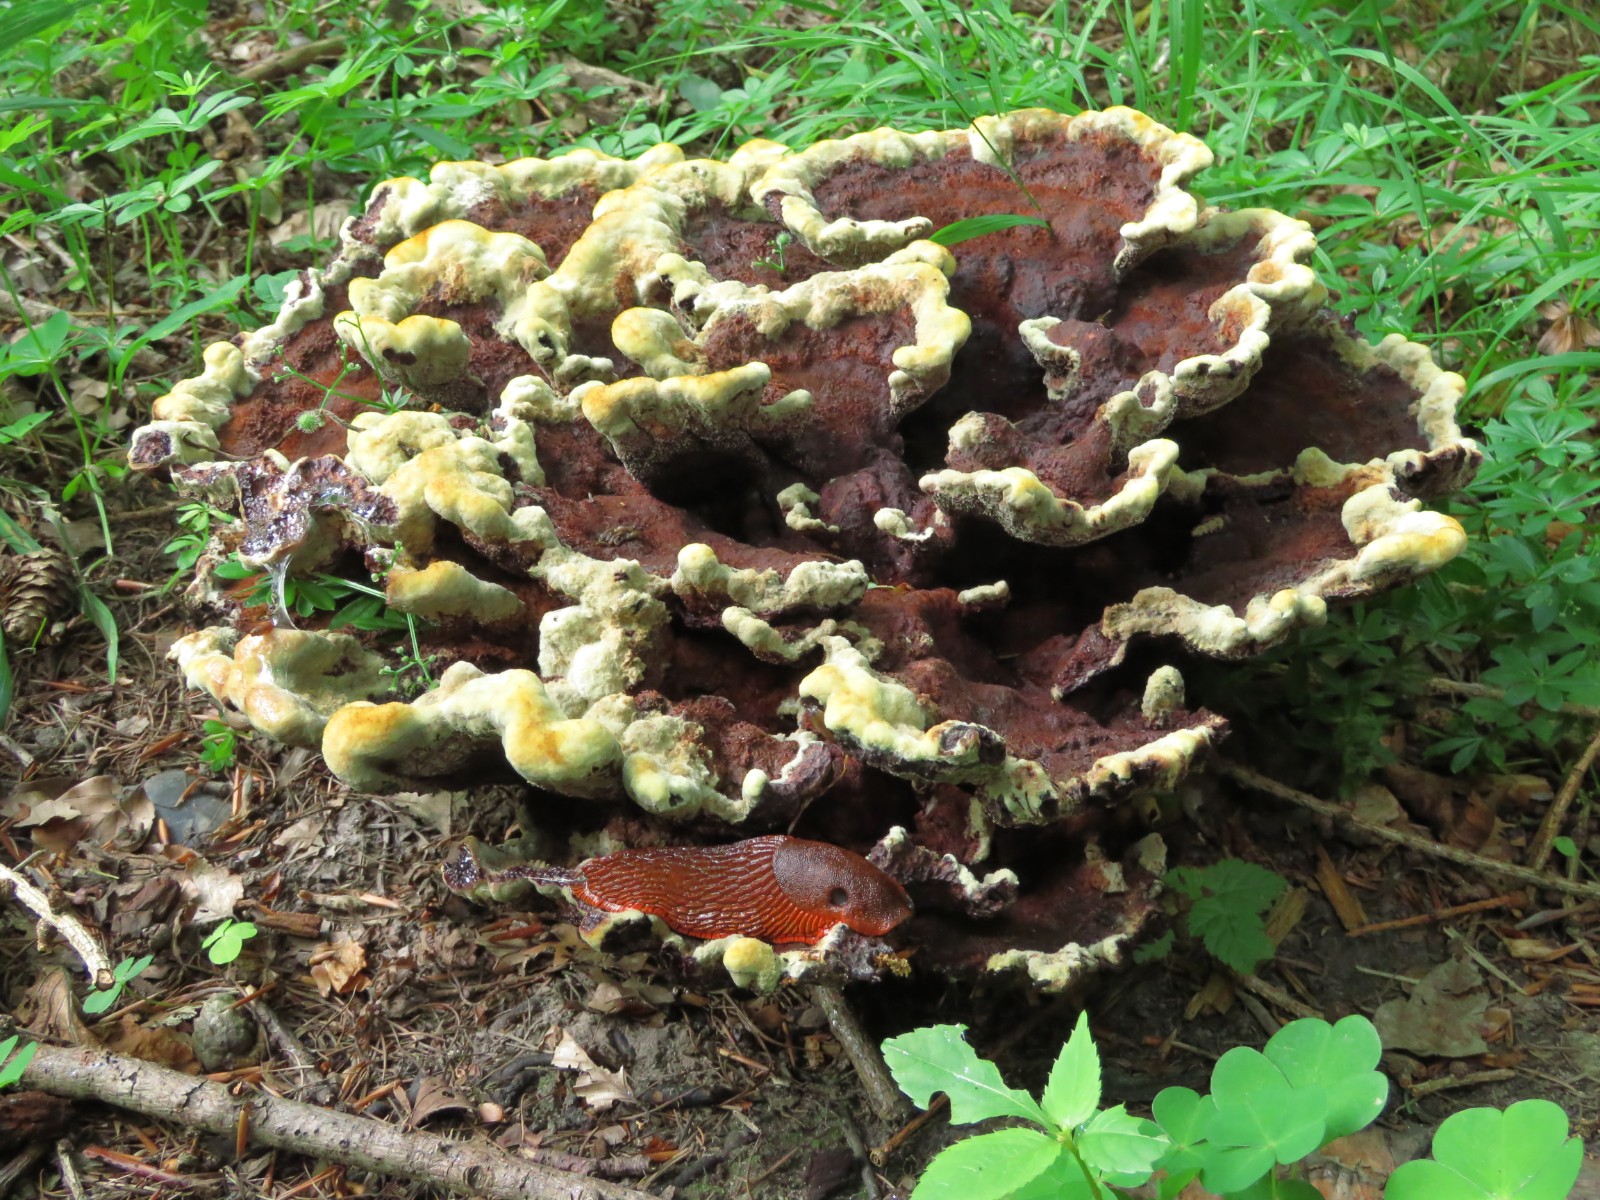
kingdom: Fungi
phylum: Basidiomycota
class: Agaricomycetes
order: Polyporales
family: Laetiporaceae
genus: Phaeolus
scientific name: Phaeolus schweinitzii
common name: brunporesvamp
